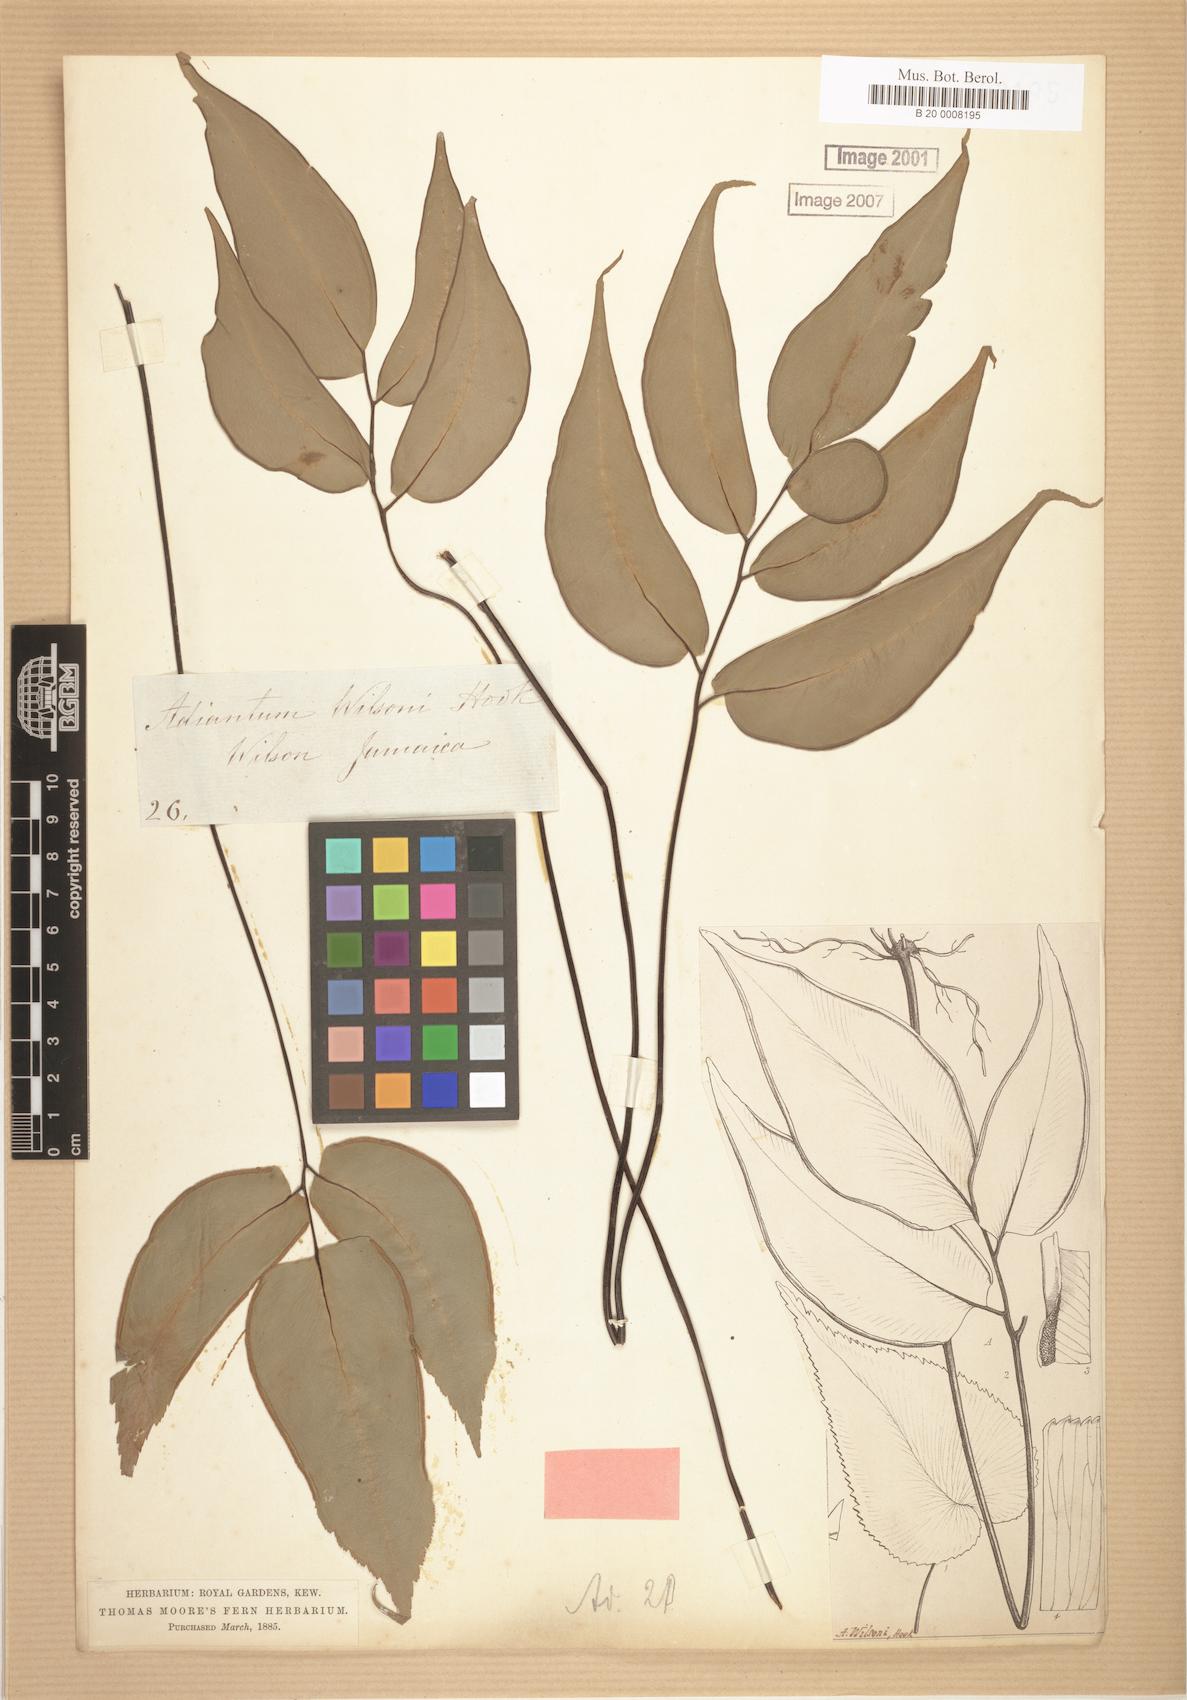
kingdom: Plantae
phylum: Tracheophyta
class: Polypodiopsida
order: Polypodiales
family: Pteridaceae
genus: Adiantum
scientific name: Adiantum wilsonii
